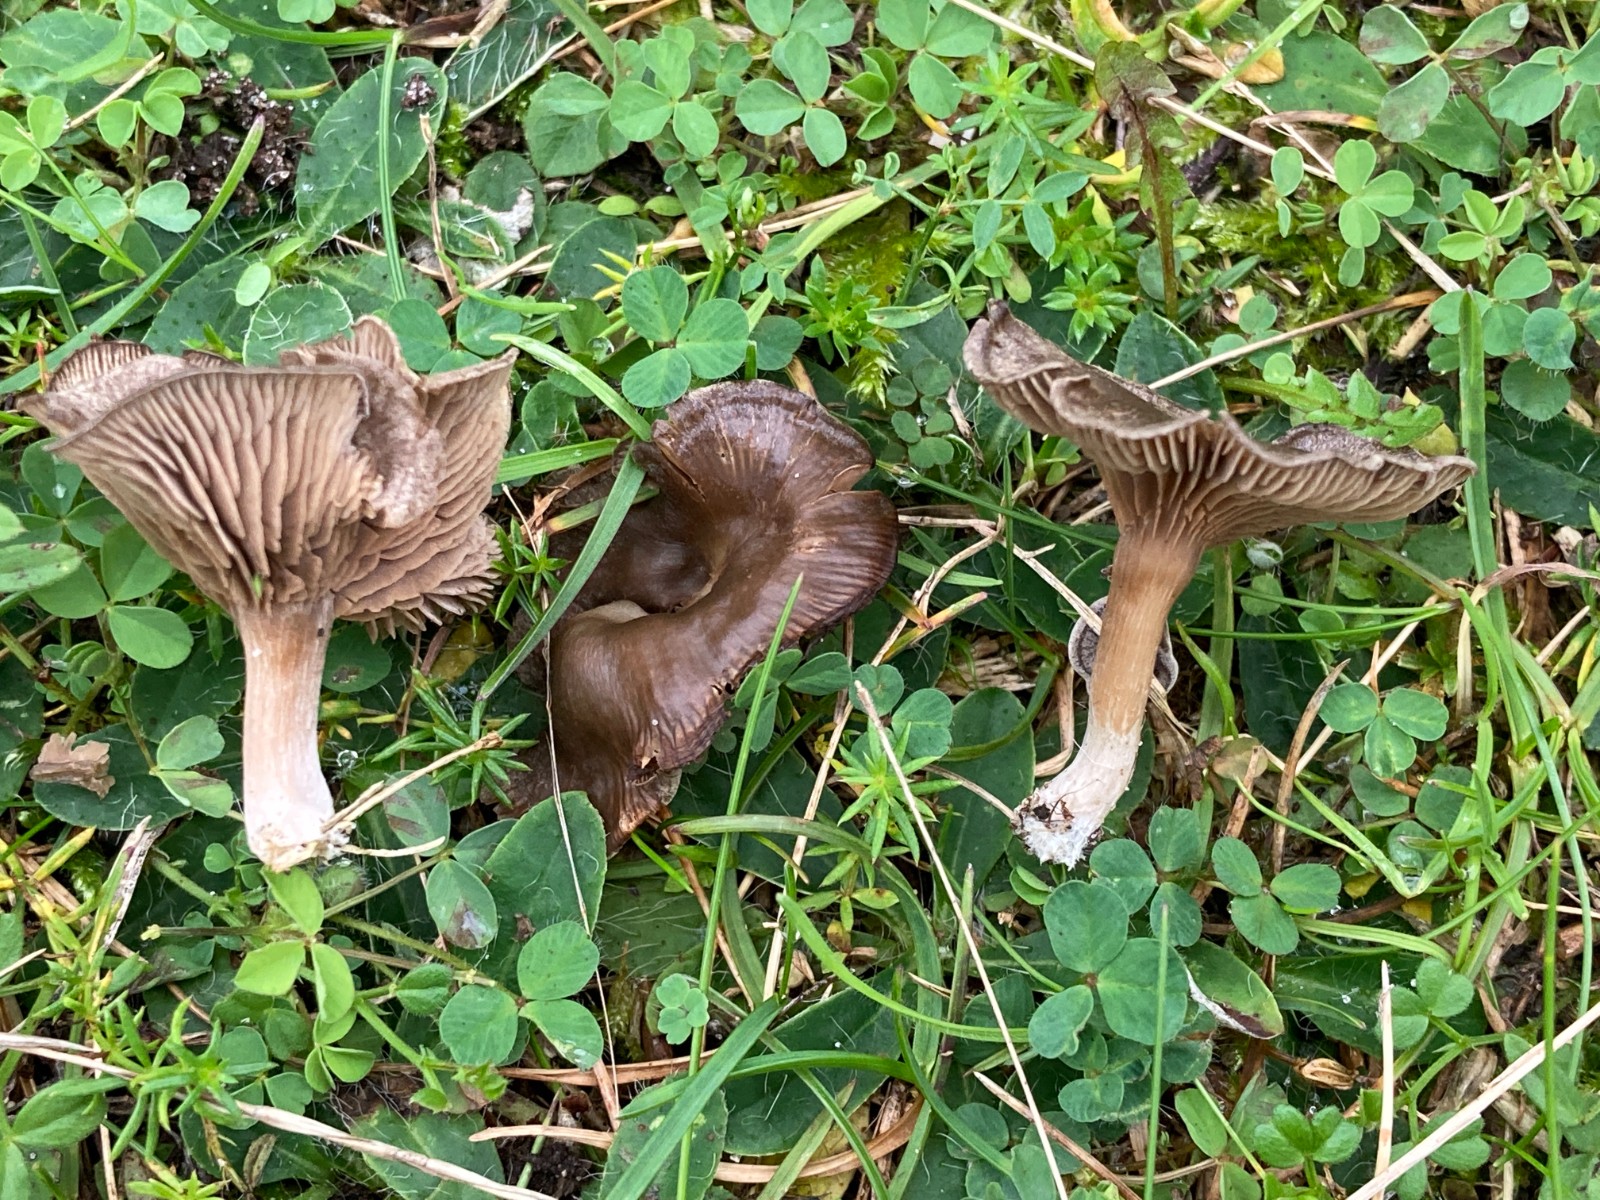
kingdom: Fungi
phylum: Basidiomycota
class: Agaricomycetes
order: Agaricales
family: Entolomataceae
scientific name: Entolomataceae
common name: rødbladfamilien
